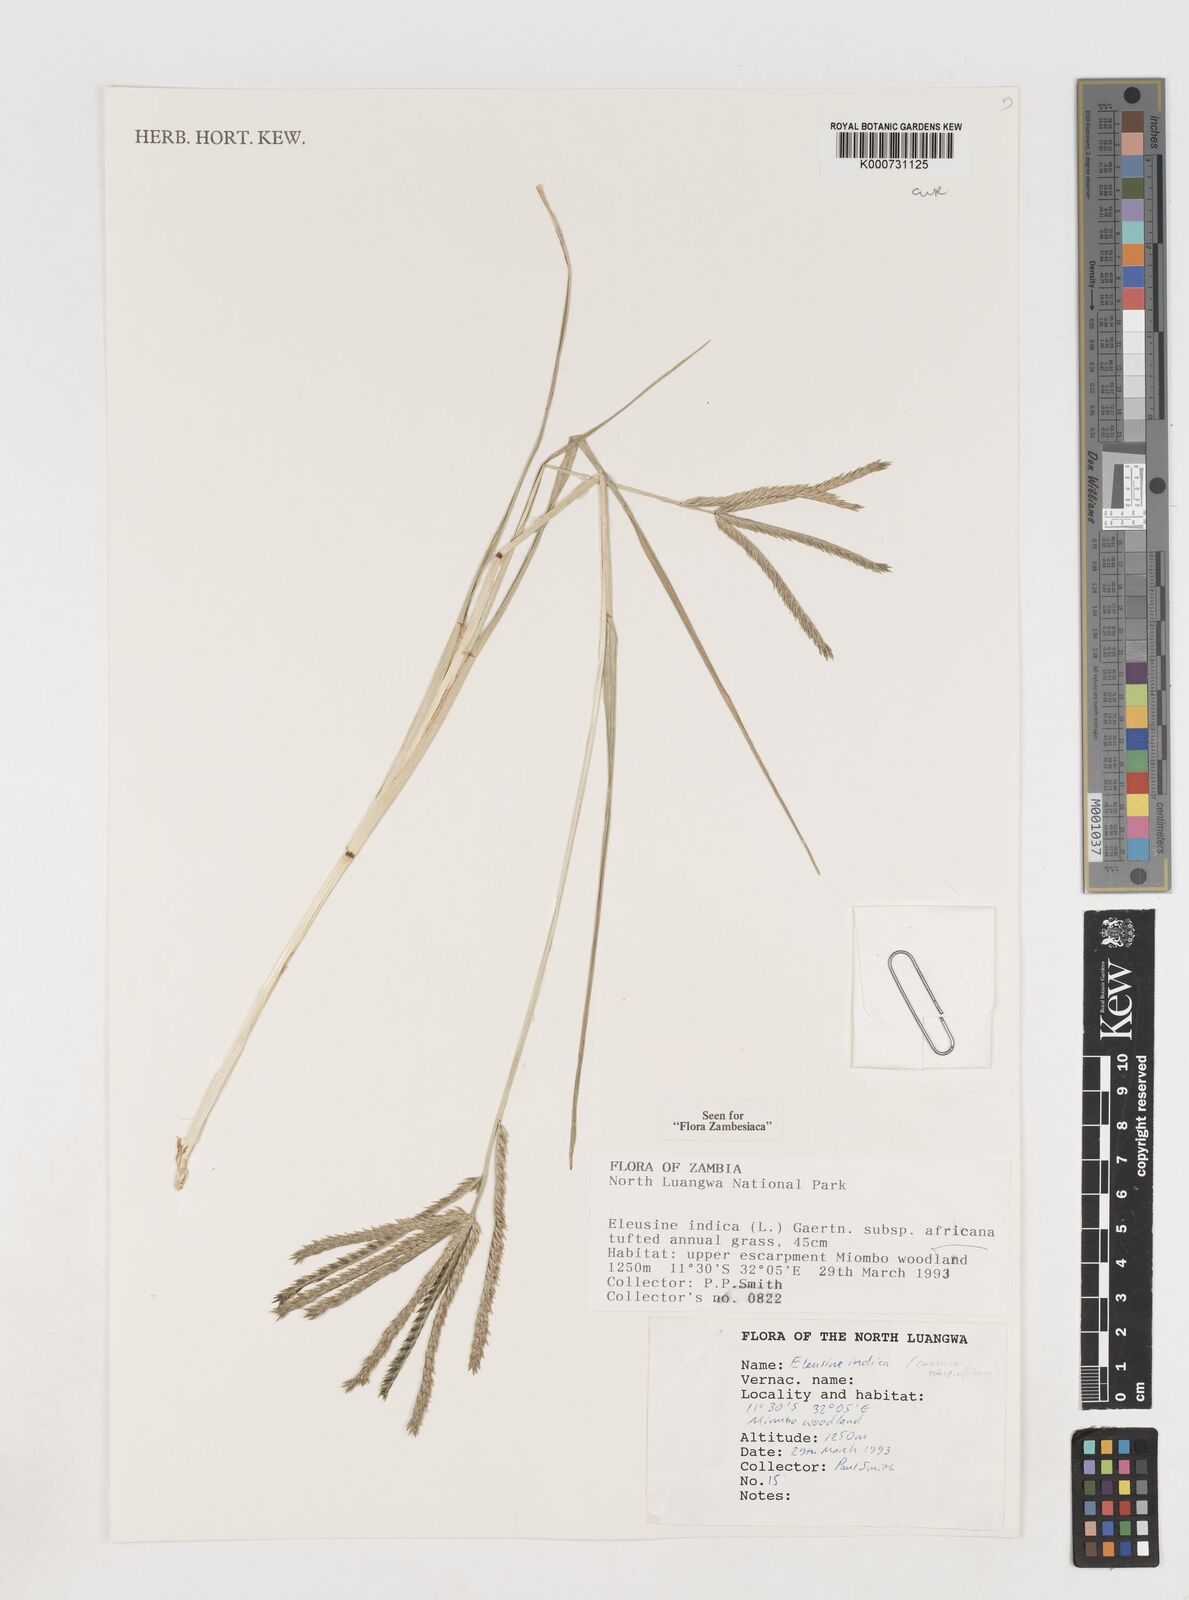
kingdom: Plantae
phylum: Tracheophyta
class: Liliopsida
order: Poales
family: Poaceae
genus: Eleusine
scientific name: Eleusine africana
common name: Wild african finger millet
